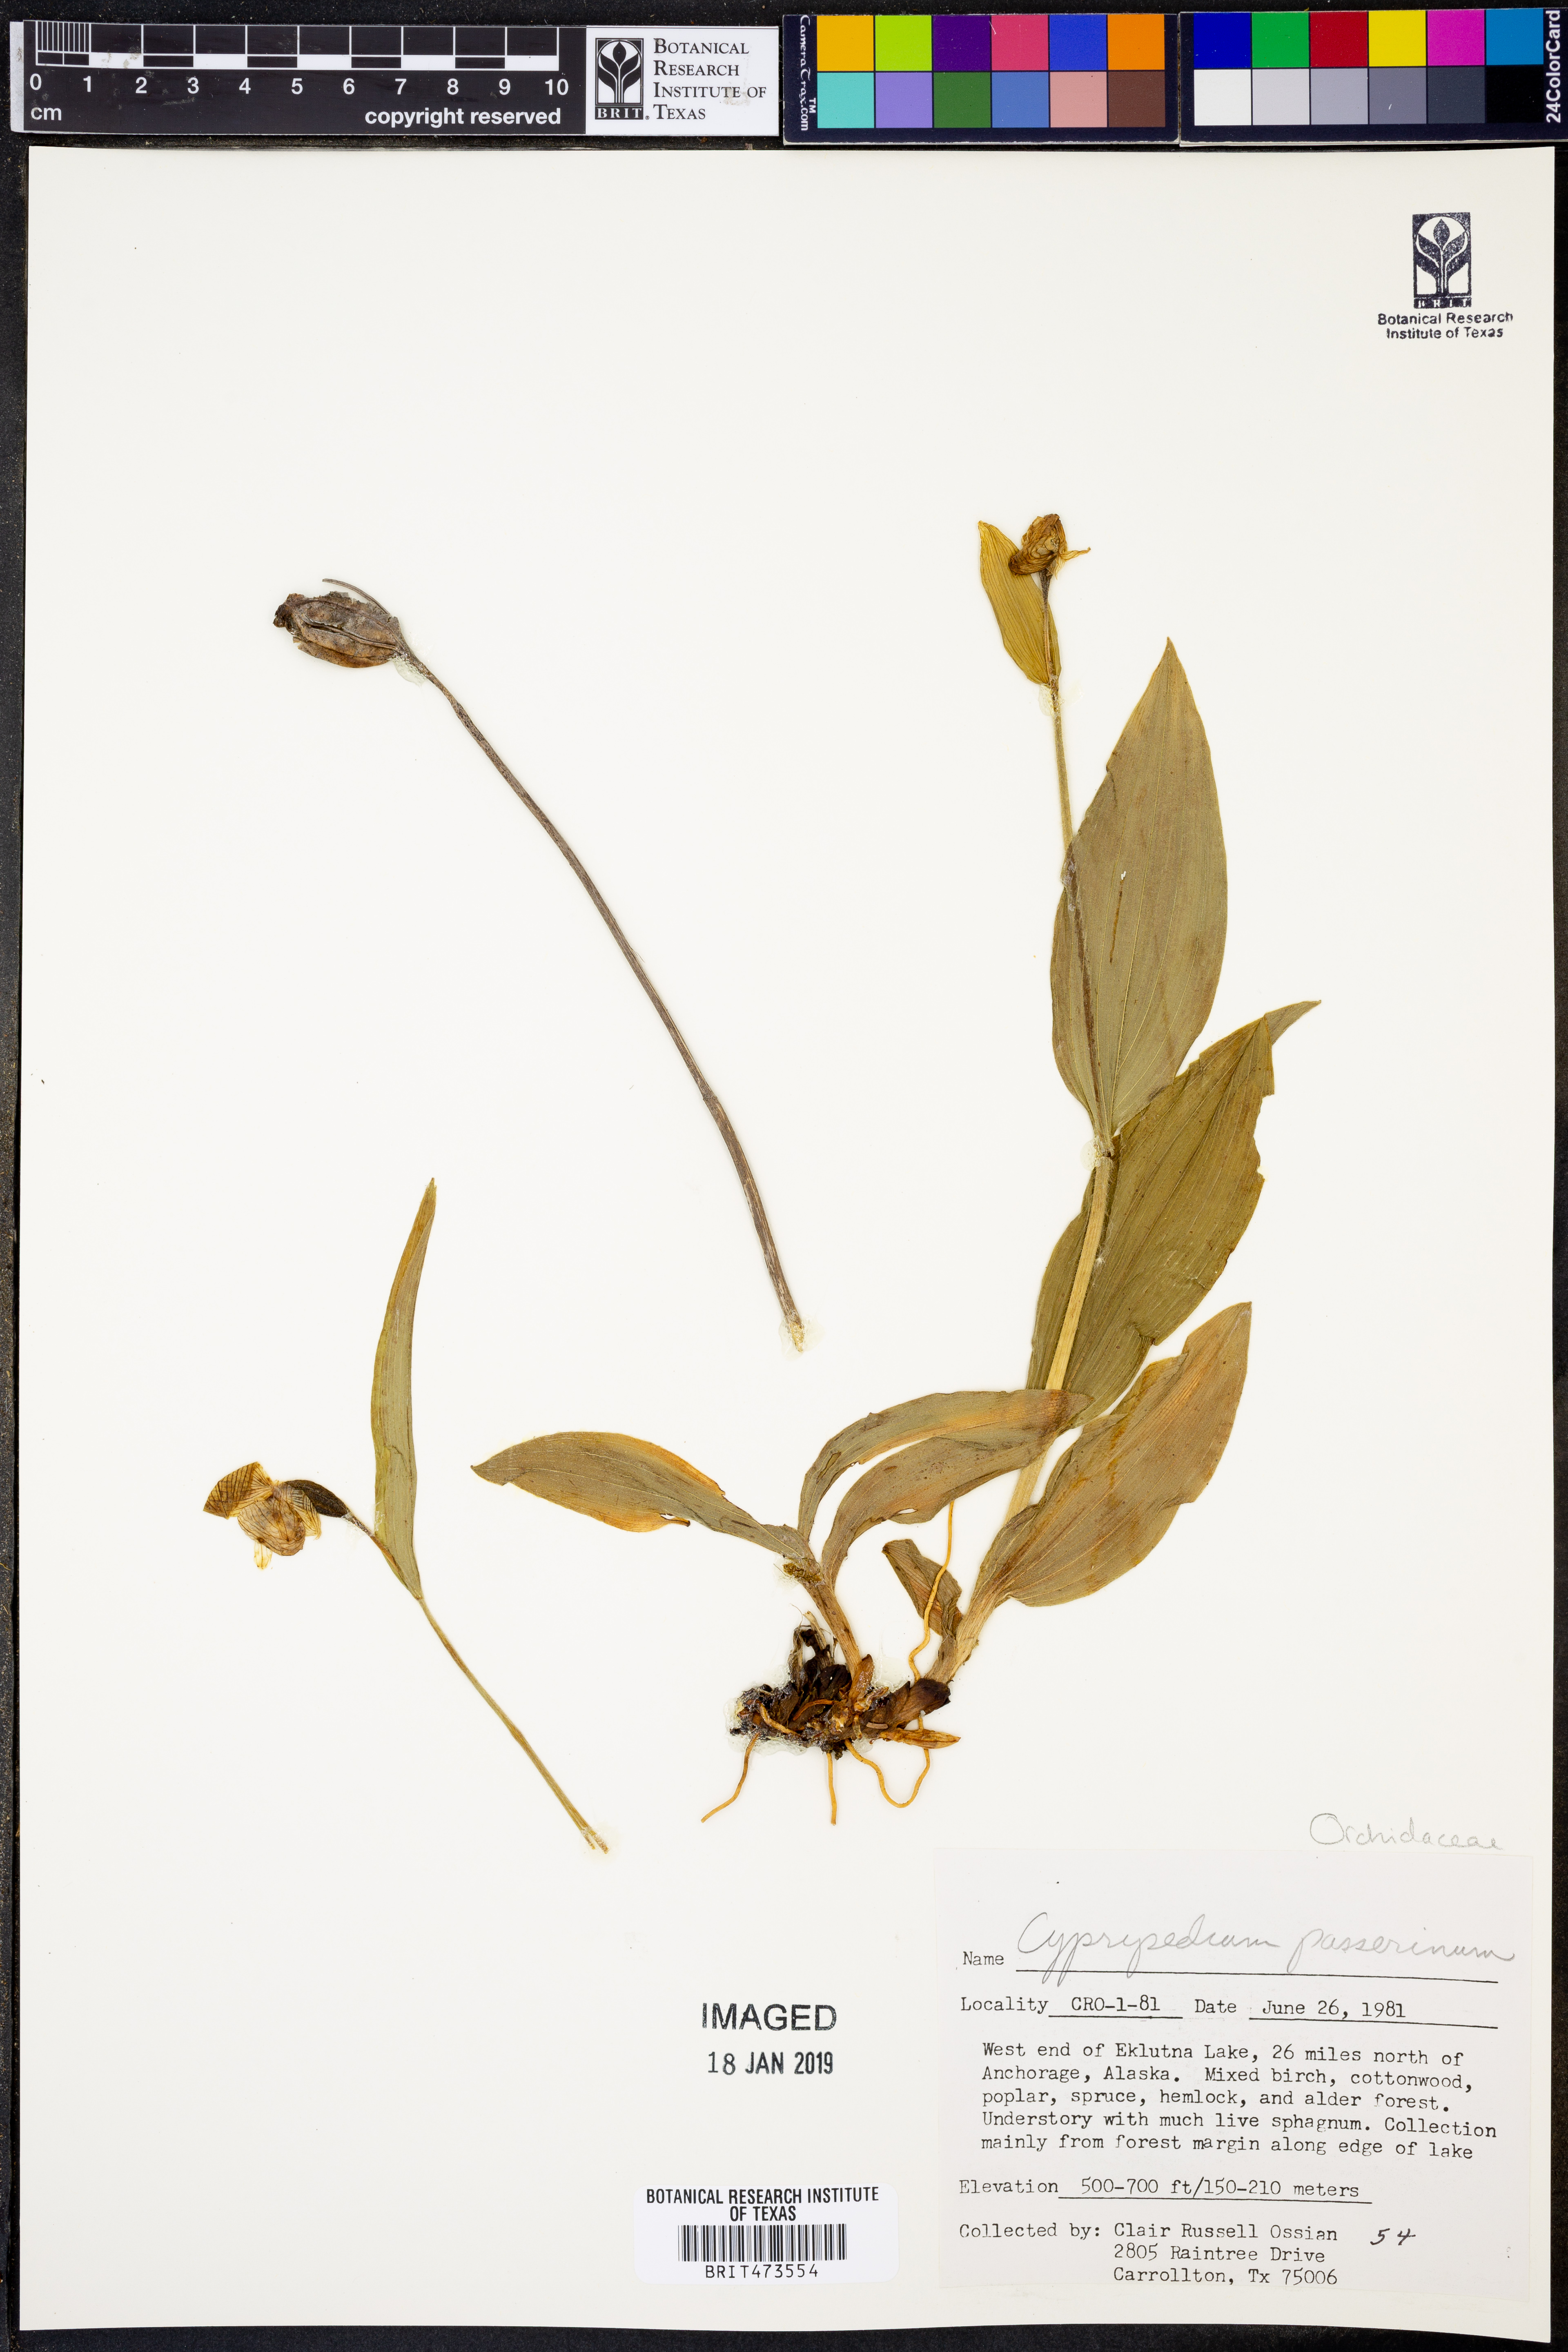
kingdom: Plantae
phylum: Tracheophyta
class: Liliopsida
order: Asparagales
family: Orchidaceae
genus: Cypripedium
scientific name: Cypripedium passerinum
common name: Sparrow's-egg lady's-slipper
